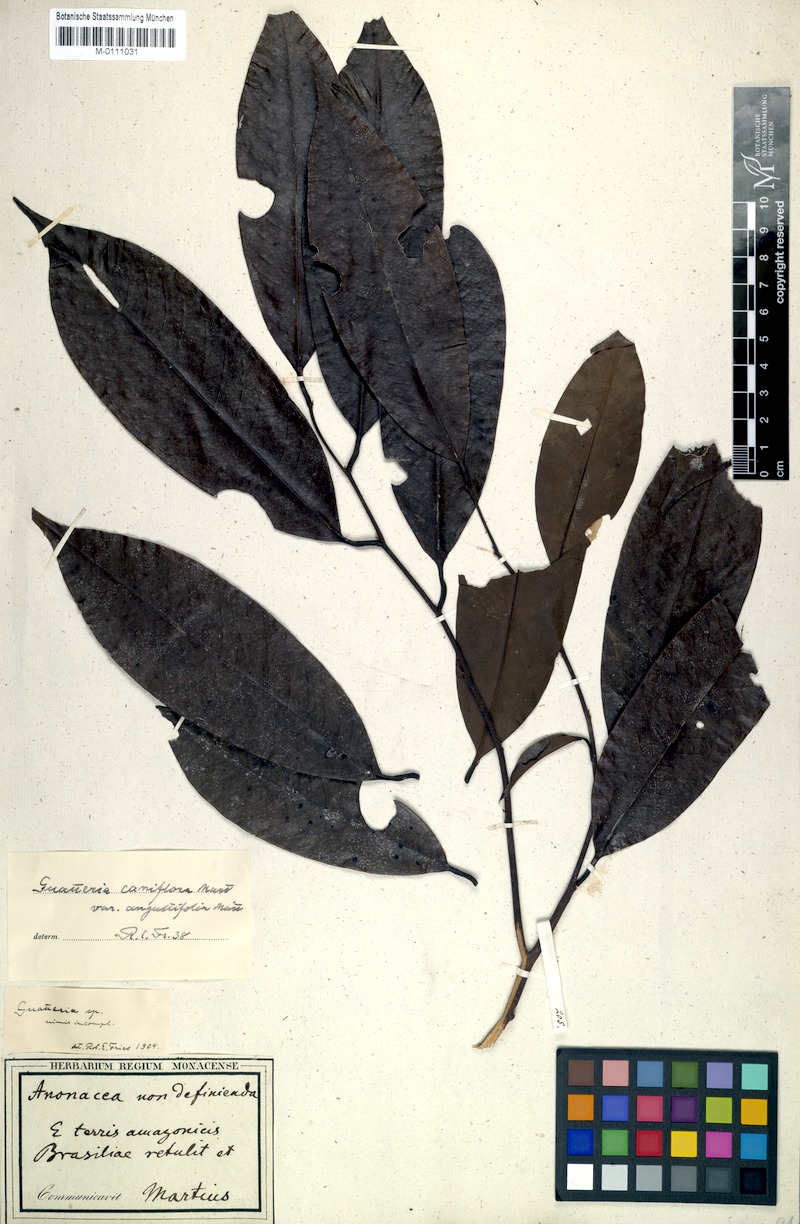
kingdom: Plantae
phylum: Tracheophyta
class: Magnoliopsida
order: Magnoliales
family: Annonaceae
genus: Guatteria
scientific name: Guatteria caniflora
